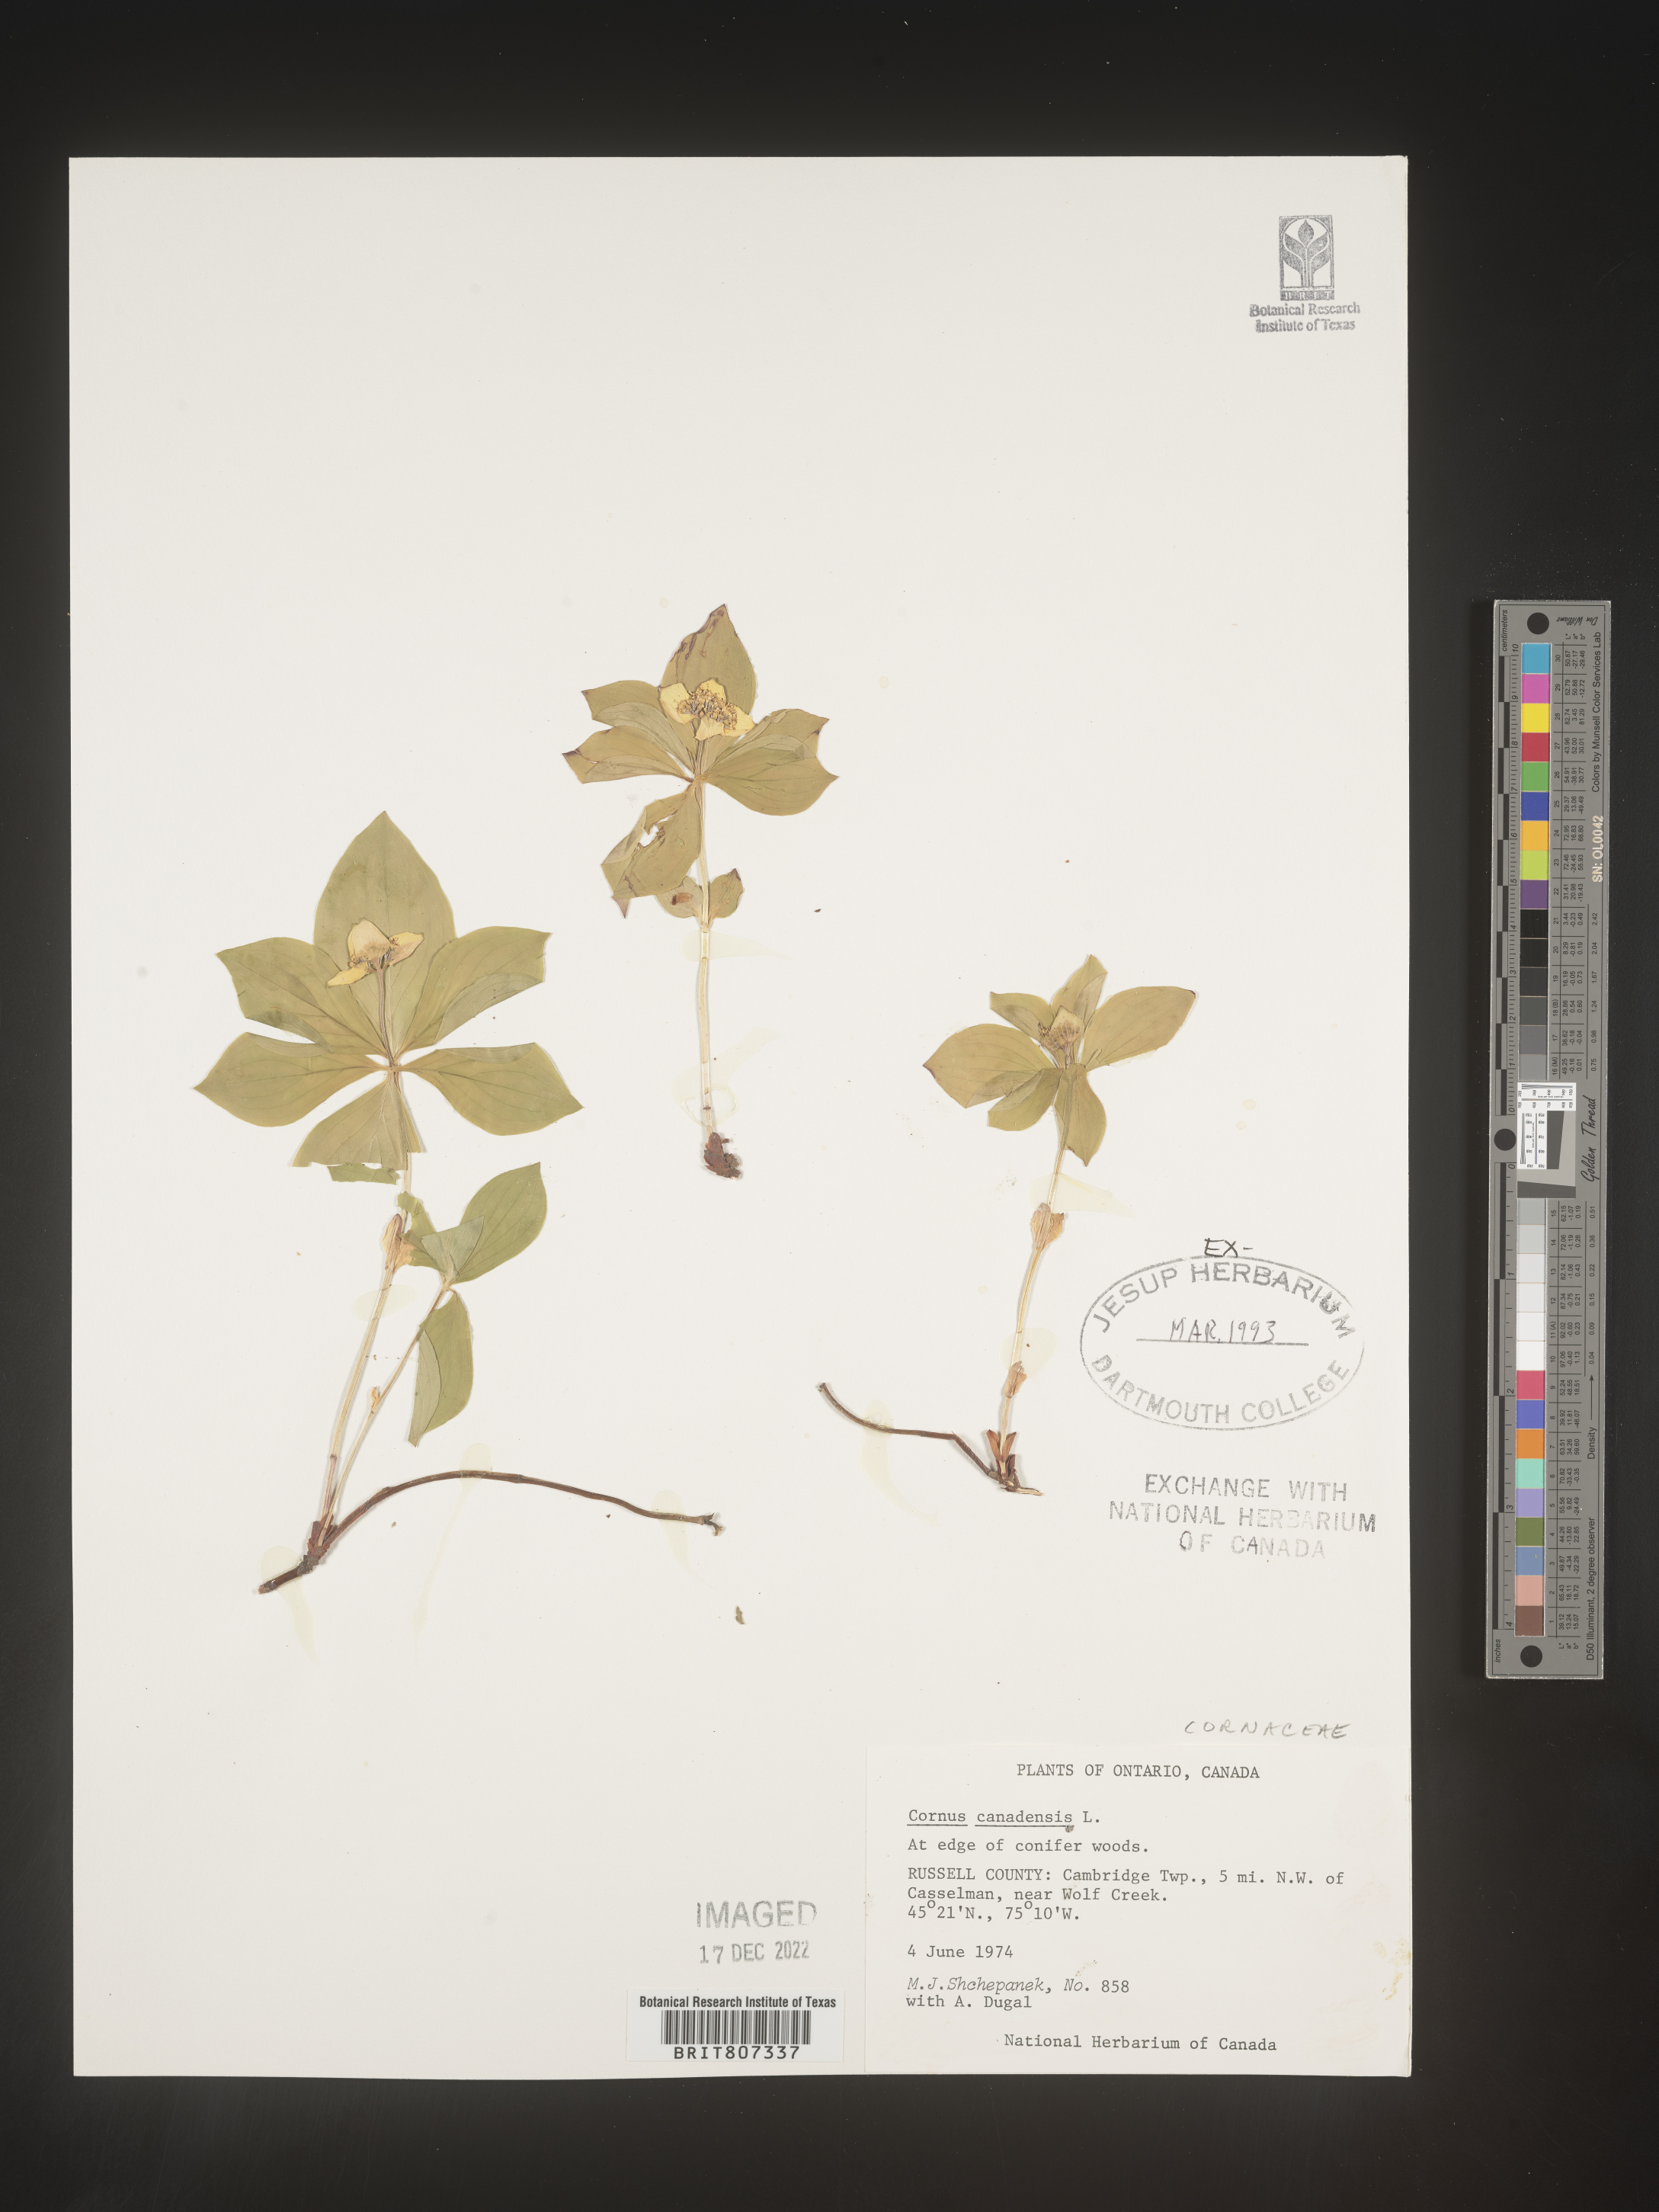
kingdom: Plantae
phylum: Tracheophyta
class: Magnoliopsida
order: Cornales
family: Cornaceae
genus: Cornus
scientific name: Cornus canadensis
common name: Creeping dogwood
